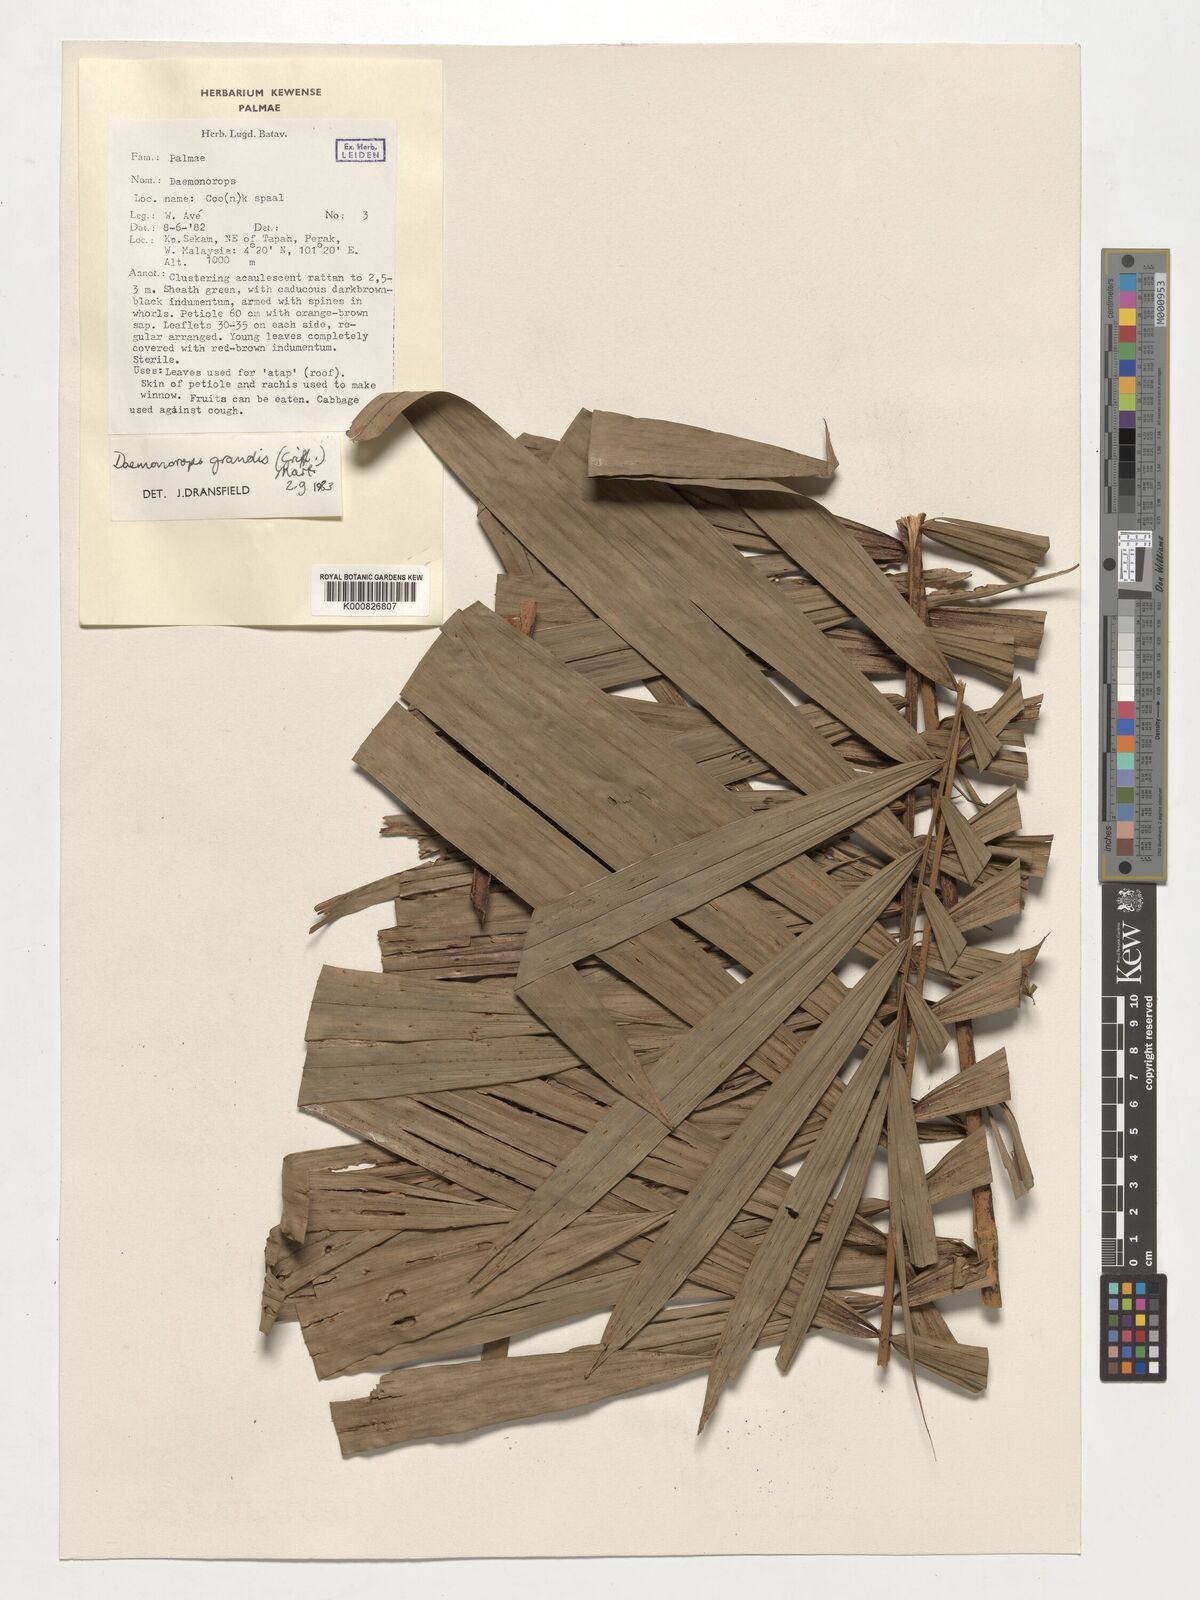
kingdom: Plantae
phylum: Tracheophyta
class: Liliopsida
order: Arecales
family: Arecaceae
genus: Calamus
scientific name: Calamus melanochaetes
